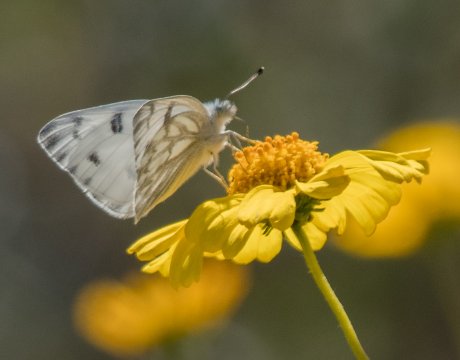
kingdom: Animalia
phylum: Arthropoda
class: Insecta
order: Lepidoptera
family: Pieridae
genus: Pontia
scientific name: Pontia occidentalis
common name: Western White
